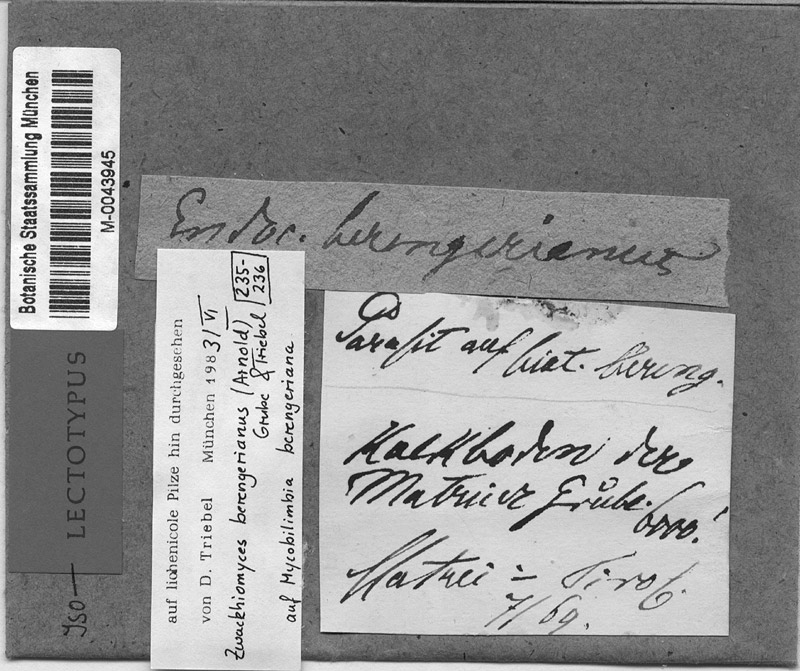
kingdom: Fungi
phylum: Ascomycota
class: Lecanoromycetes
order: Lecideales
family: Lecideaceae
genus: Lecidea
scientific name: Lecidea berengeriana
